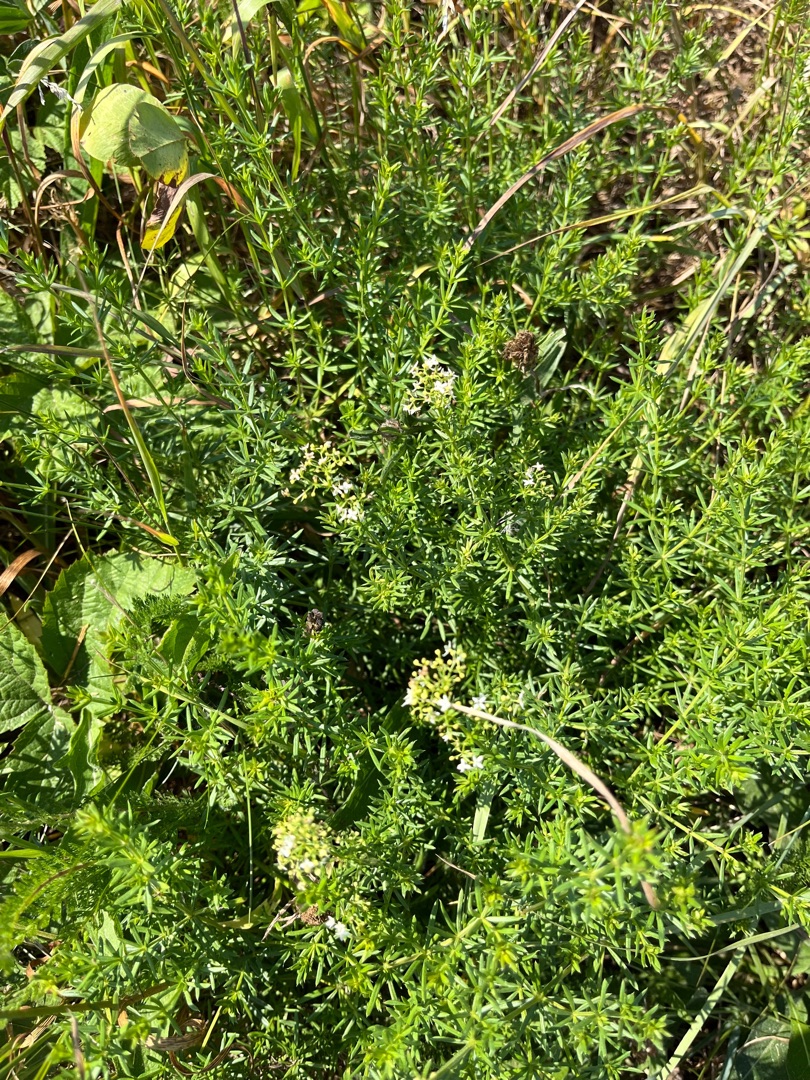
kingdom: Plantae
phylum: Tracheophyta
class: Magnoliopsida
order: Gentianales
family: Rubiaceae
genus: Galium
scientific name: Galium mollugo
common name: Hvid snerre
